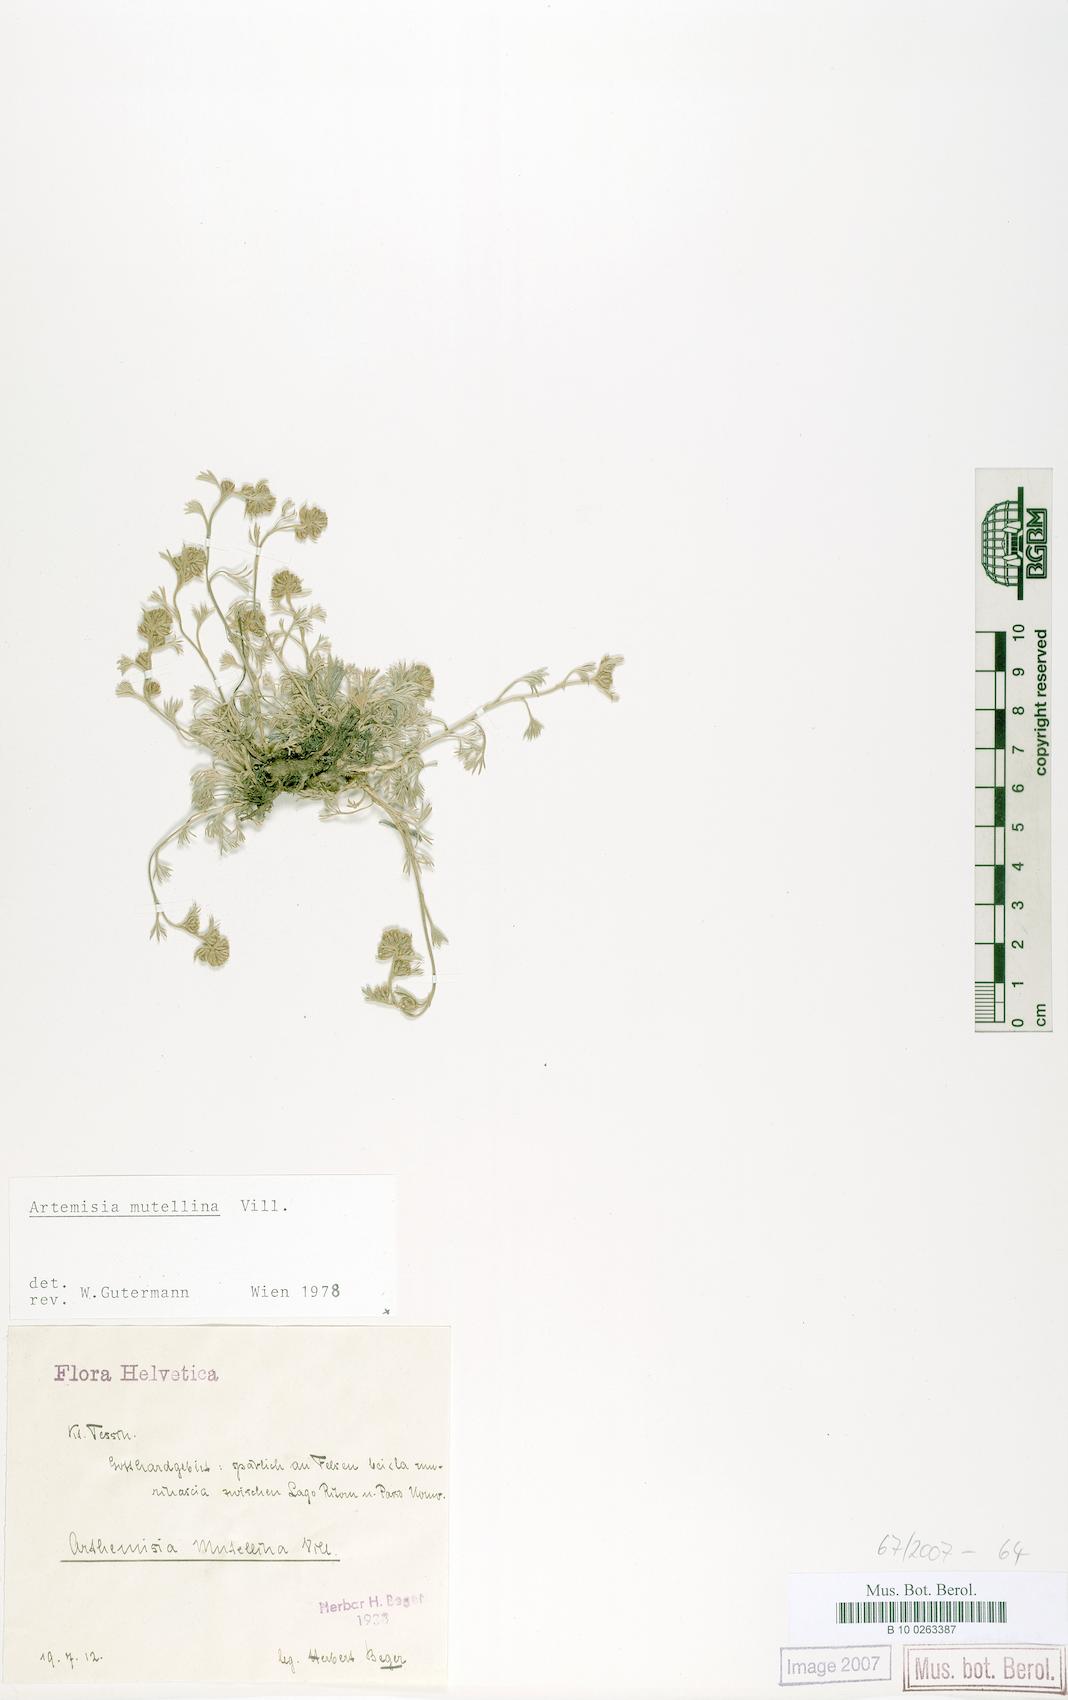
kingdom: Plantae
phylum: Tracheophyta
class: Magnoliopsida
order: Asterales
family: Asteraceae
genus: Artemisia
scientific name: Artemisia mutellina
